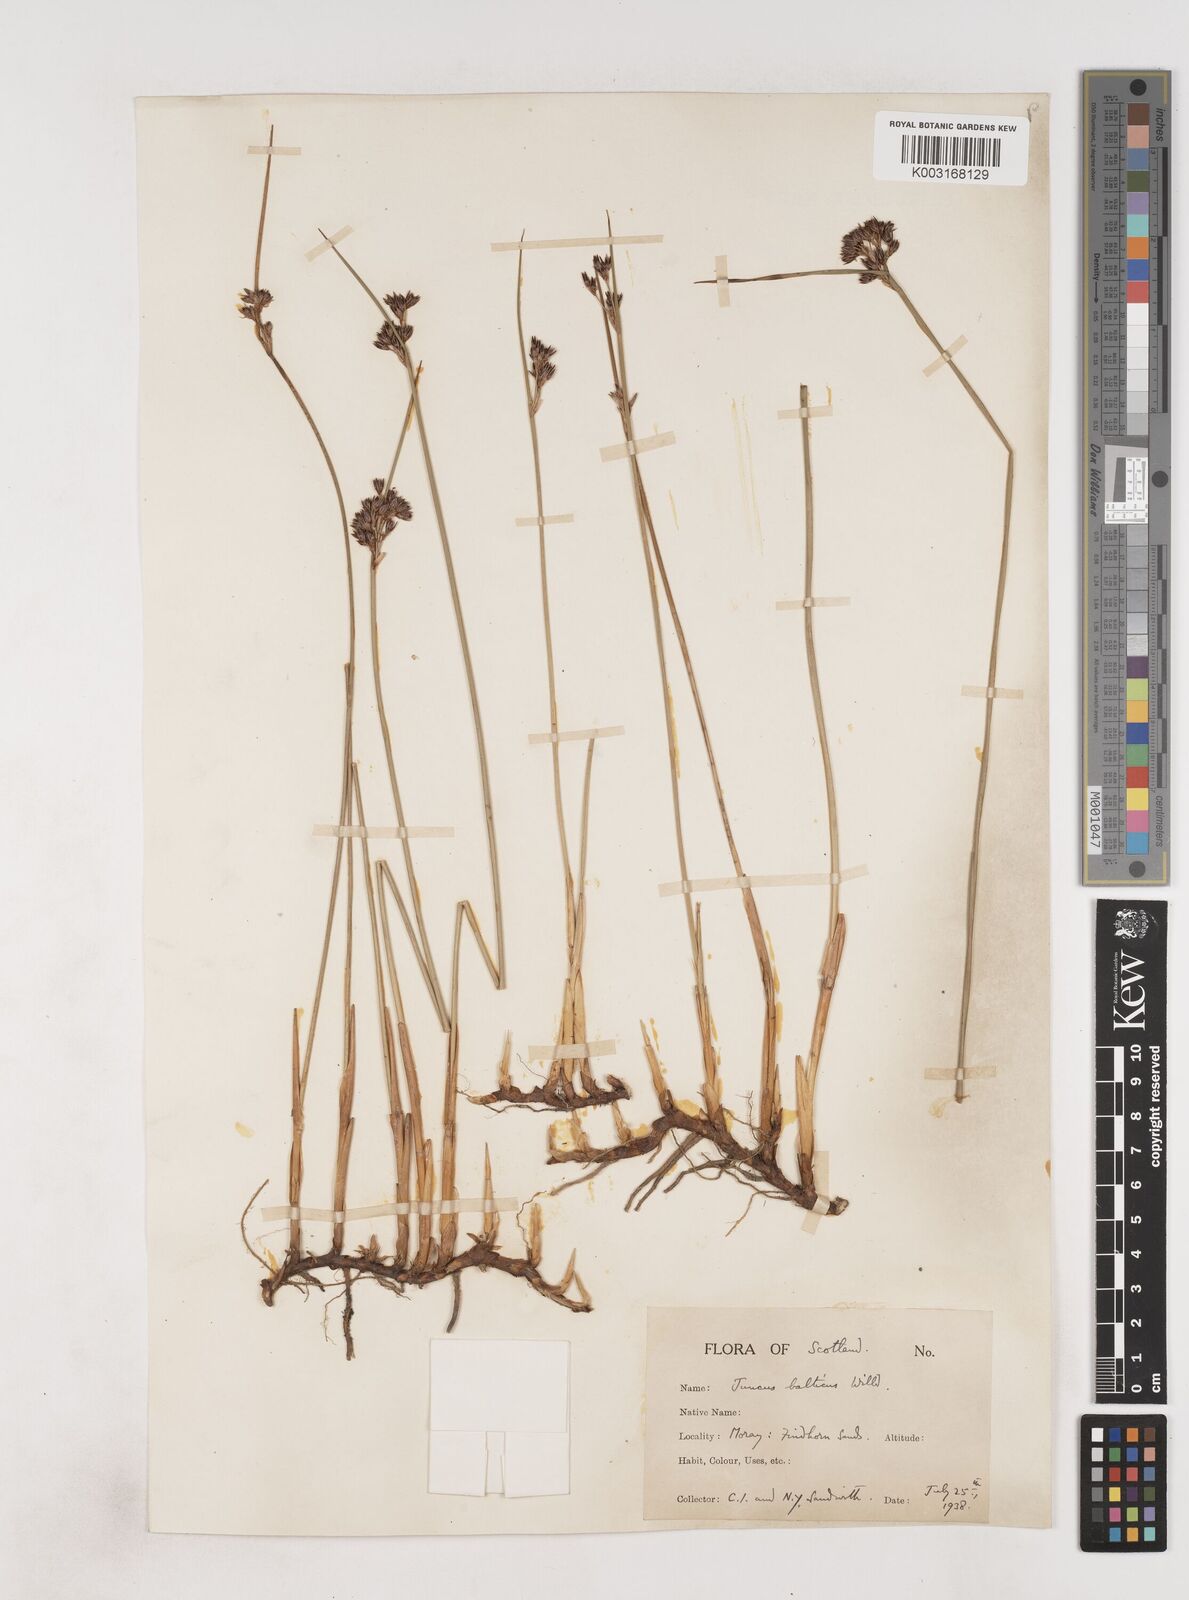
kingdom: Plantae
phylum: Tracheophyta
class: Liliopsida
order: Poales
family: Juncaceae
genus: Juncus
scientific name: Juncus balticus
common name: Baltic rush
